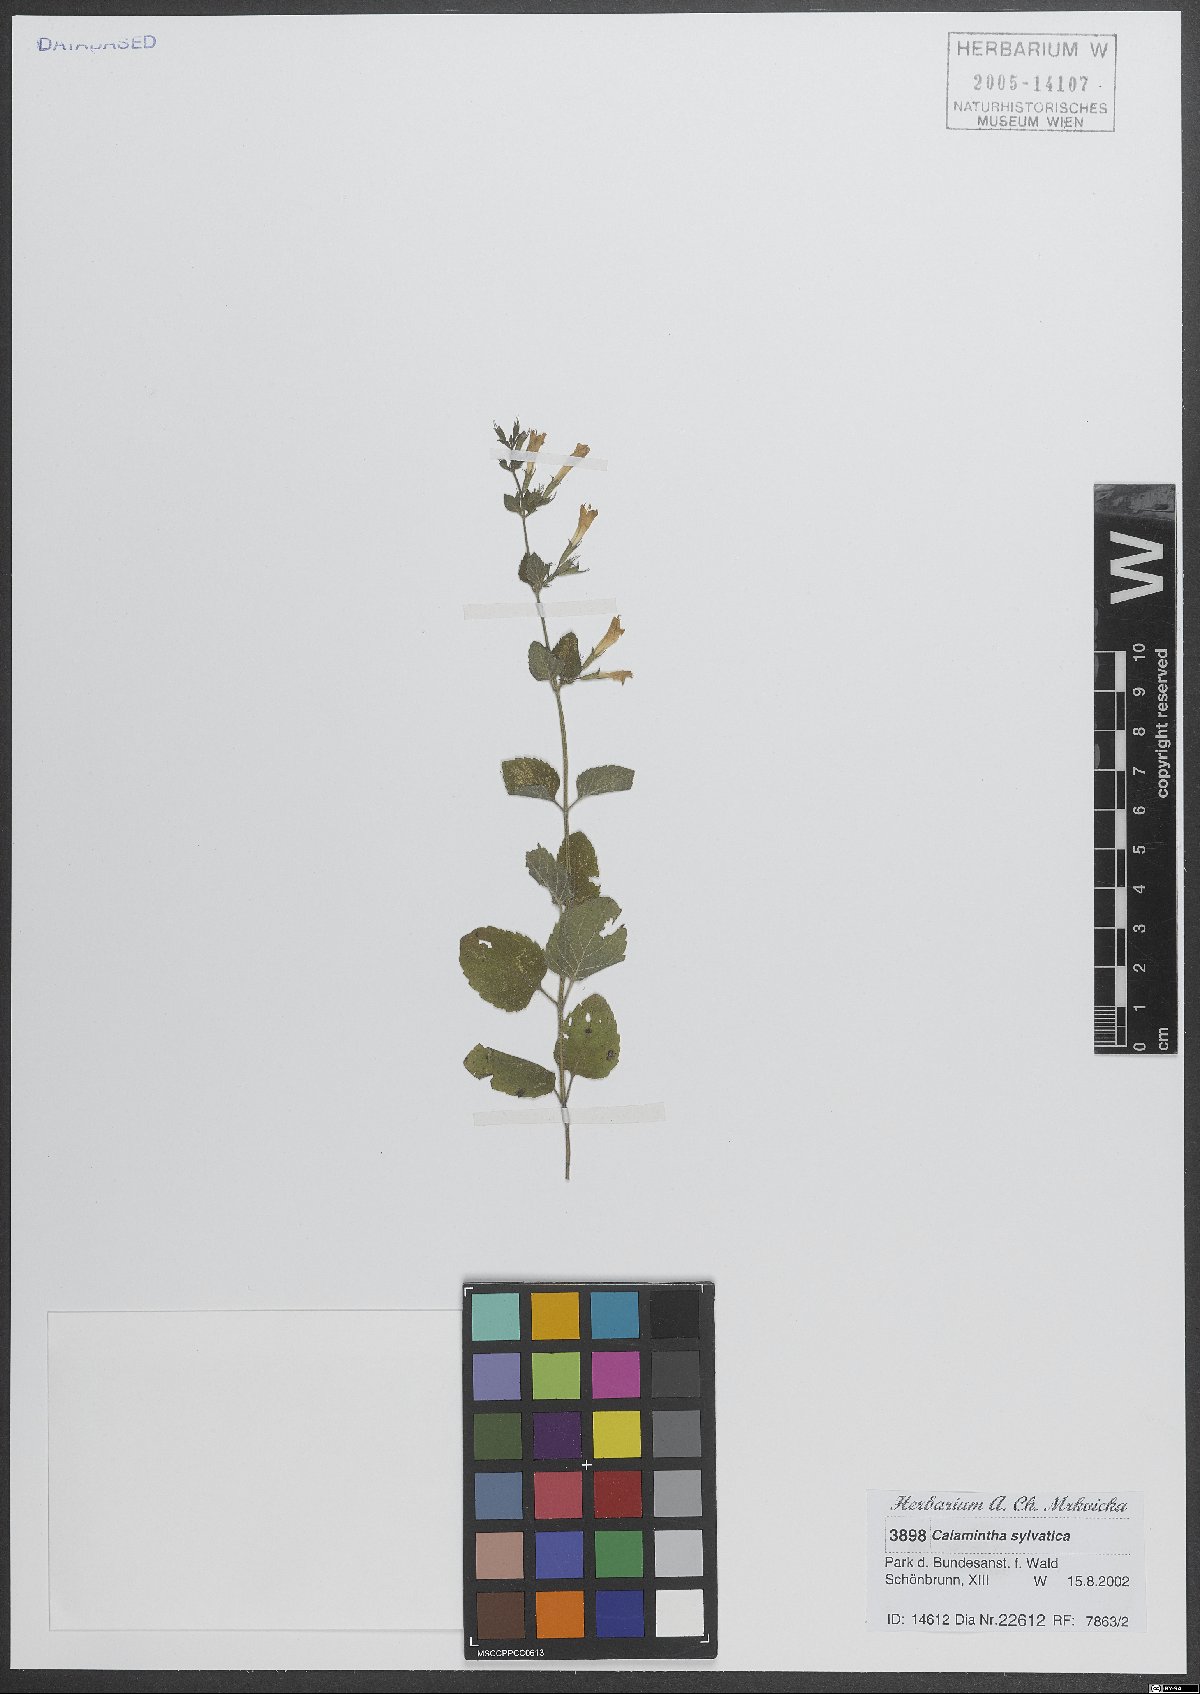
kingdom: Plantae
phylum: Tracheophyta
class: Magnoliopsida
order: Lamiales
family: Lamiaceae
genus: Clinopodium
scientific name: Clinopodium menthifolium
